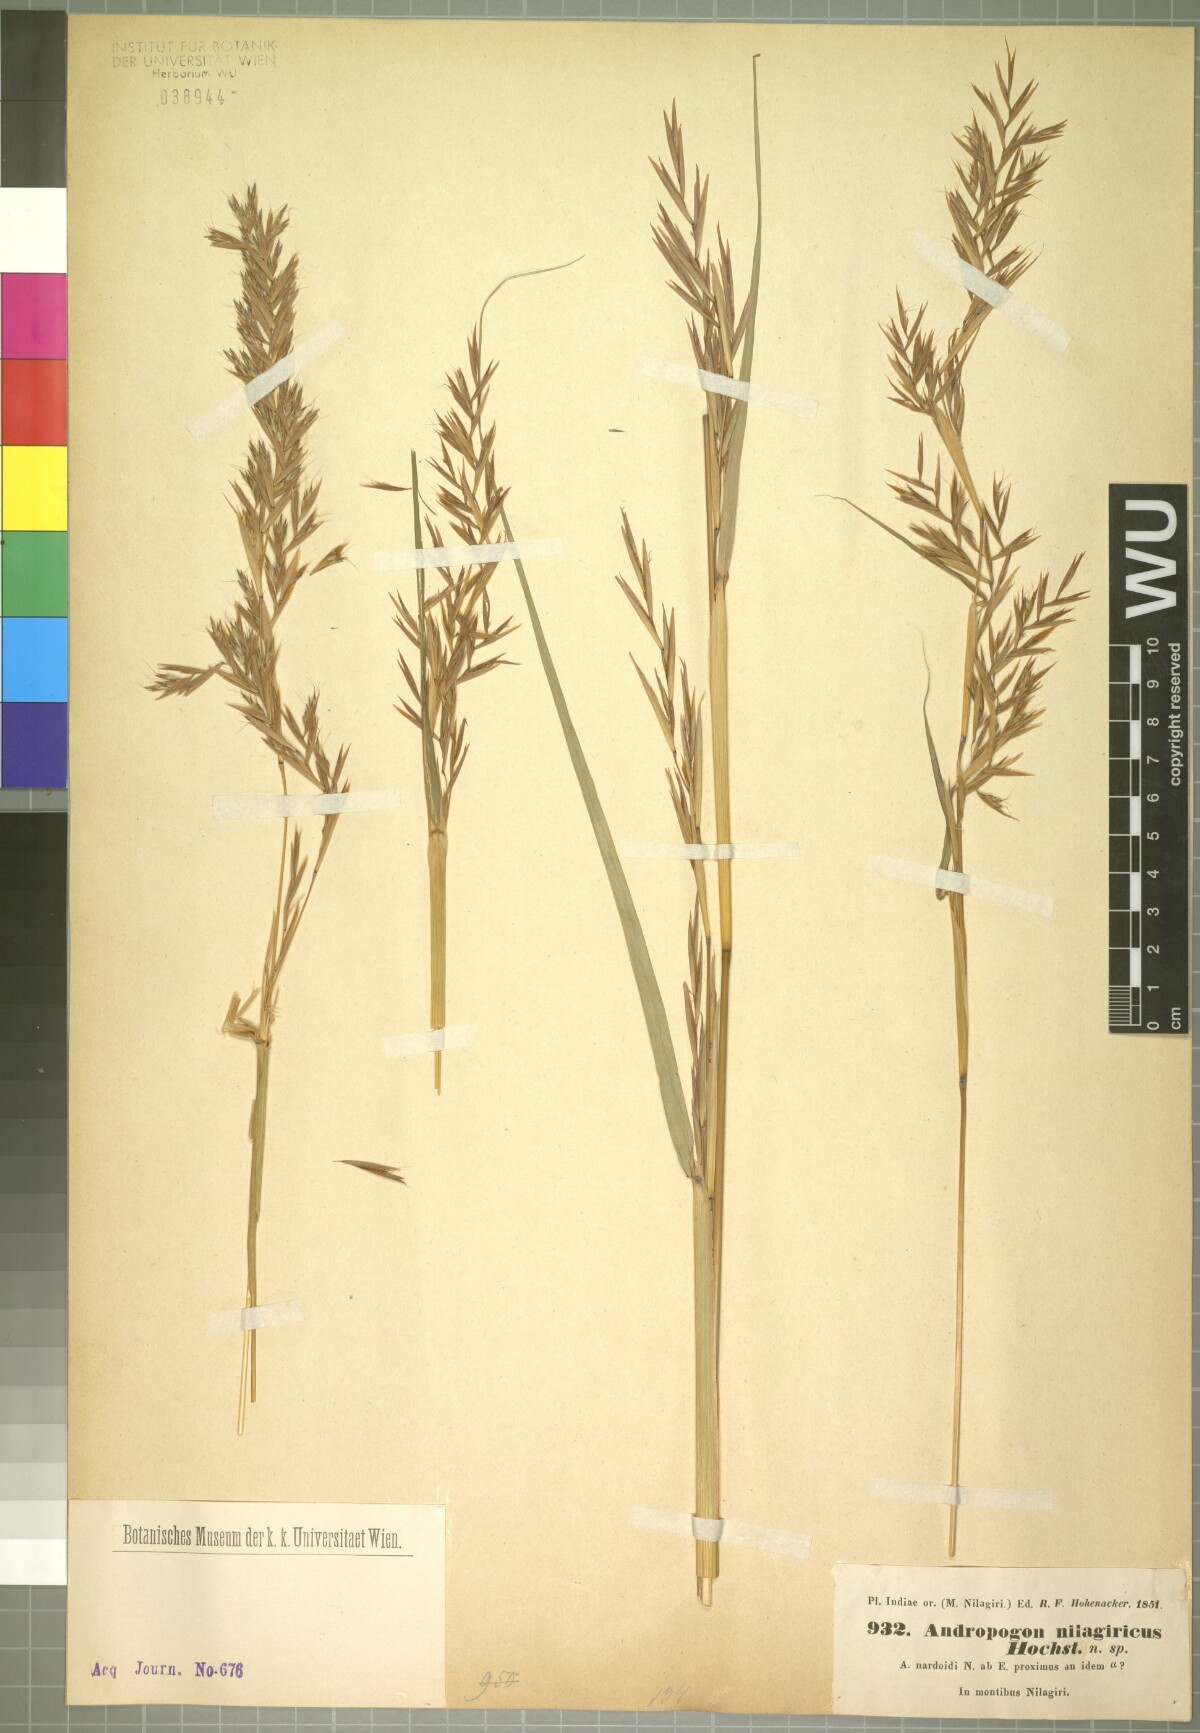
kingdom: Plantae
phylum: Tracheophyta
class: Liliopsida
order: Poales
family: Poaceae
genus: Cymbopogon
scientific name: Cymbopogon nardus
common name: Giant turpentine grass
